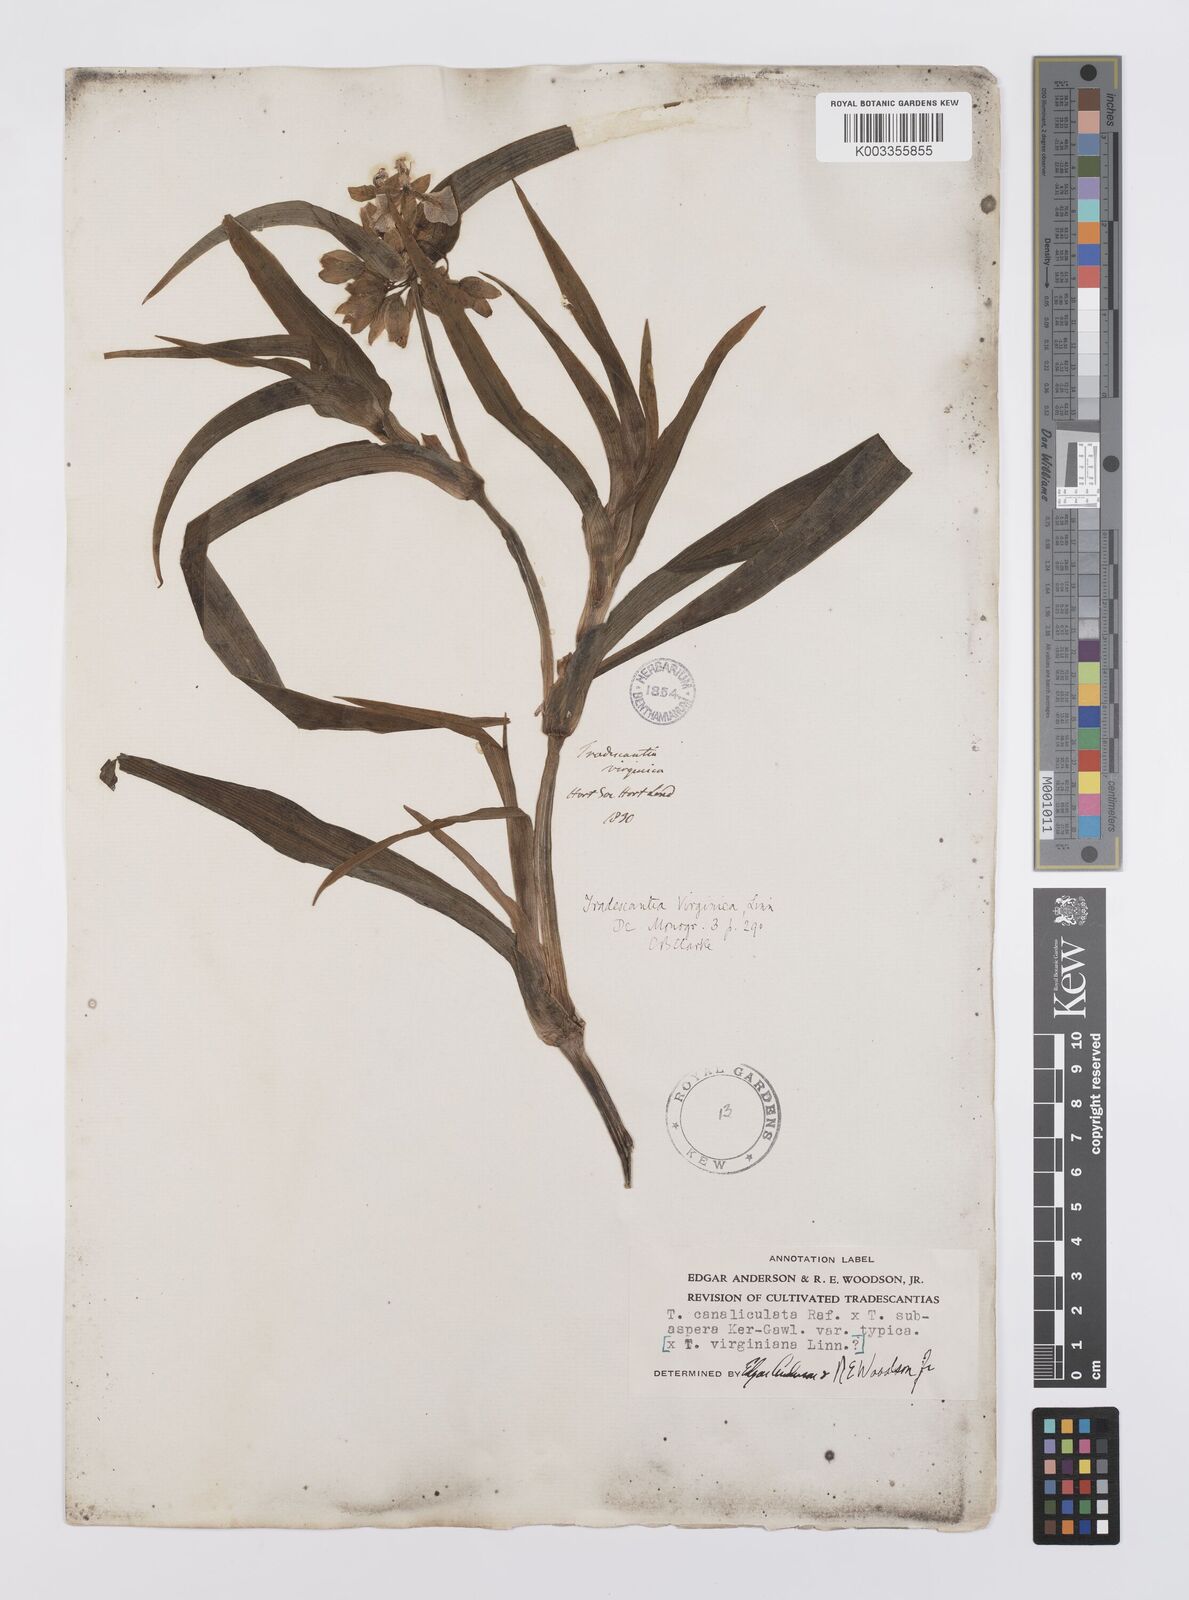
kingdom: Plantae
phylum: Tracheophyta
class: Liliopsida
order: Commelinales
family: Commelinaceae
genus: Tradescantia
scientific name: Tradescantia ohiensis
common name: Ohio spiderwort
